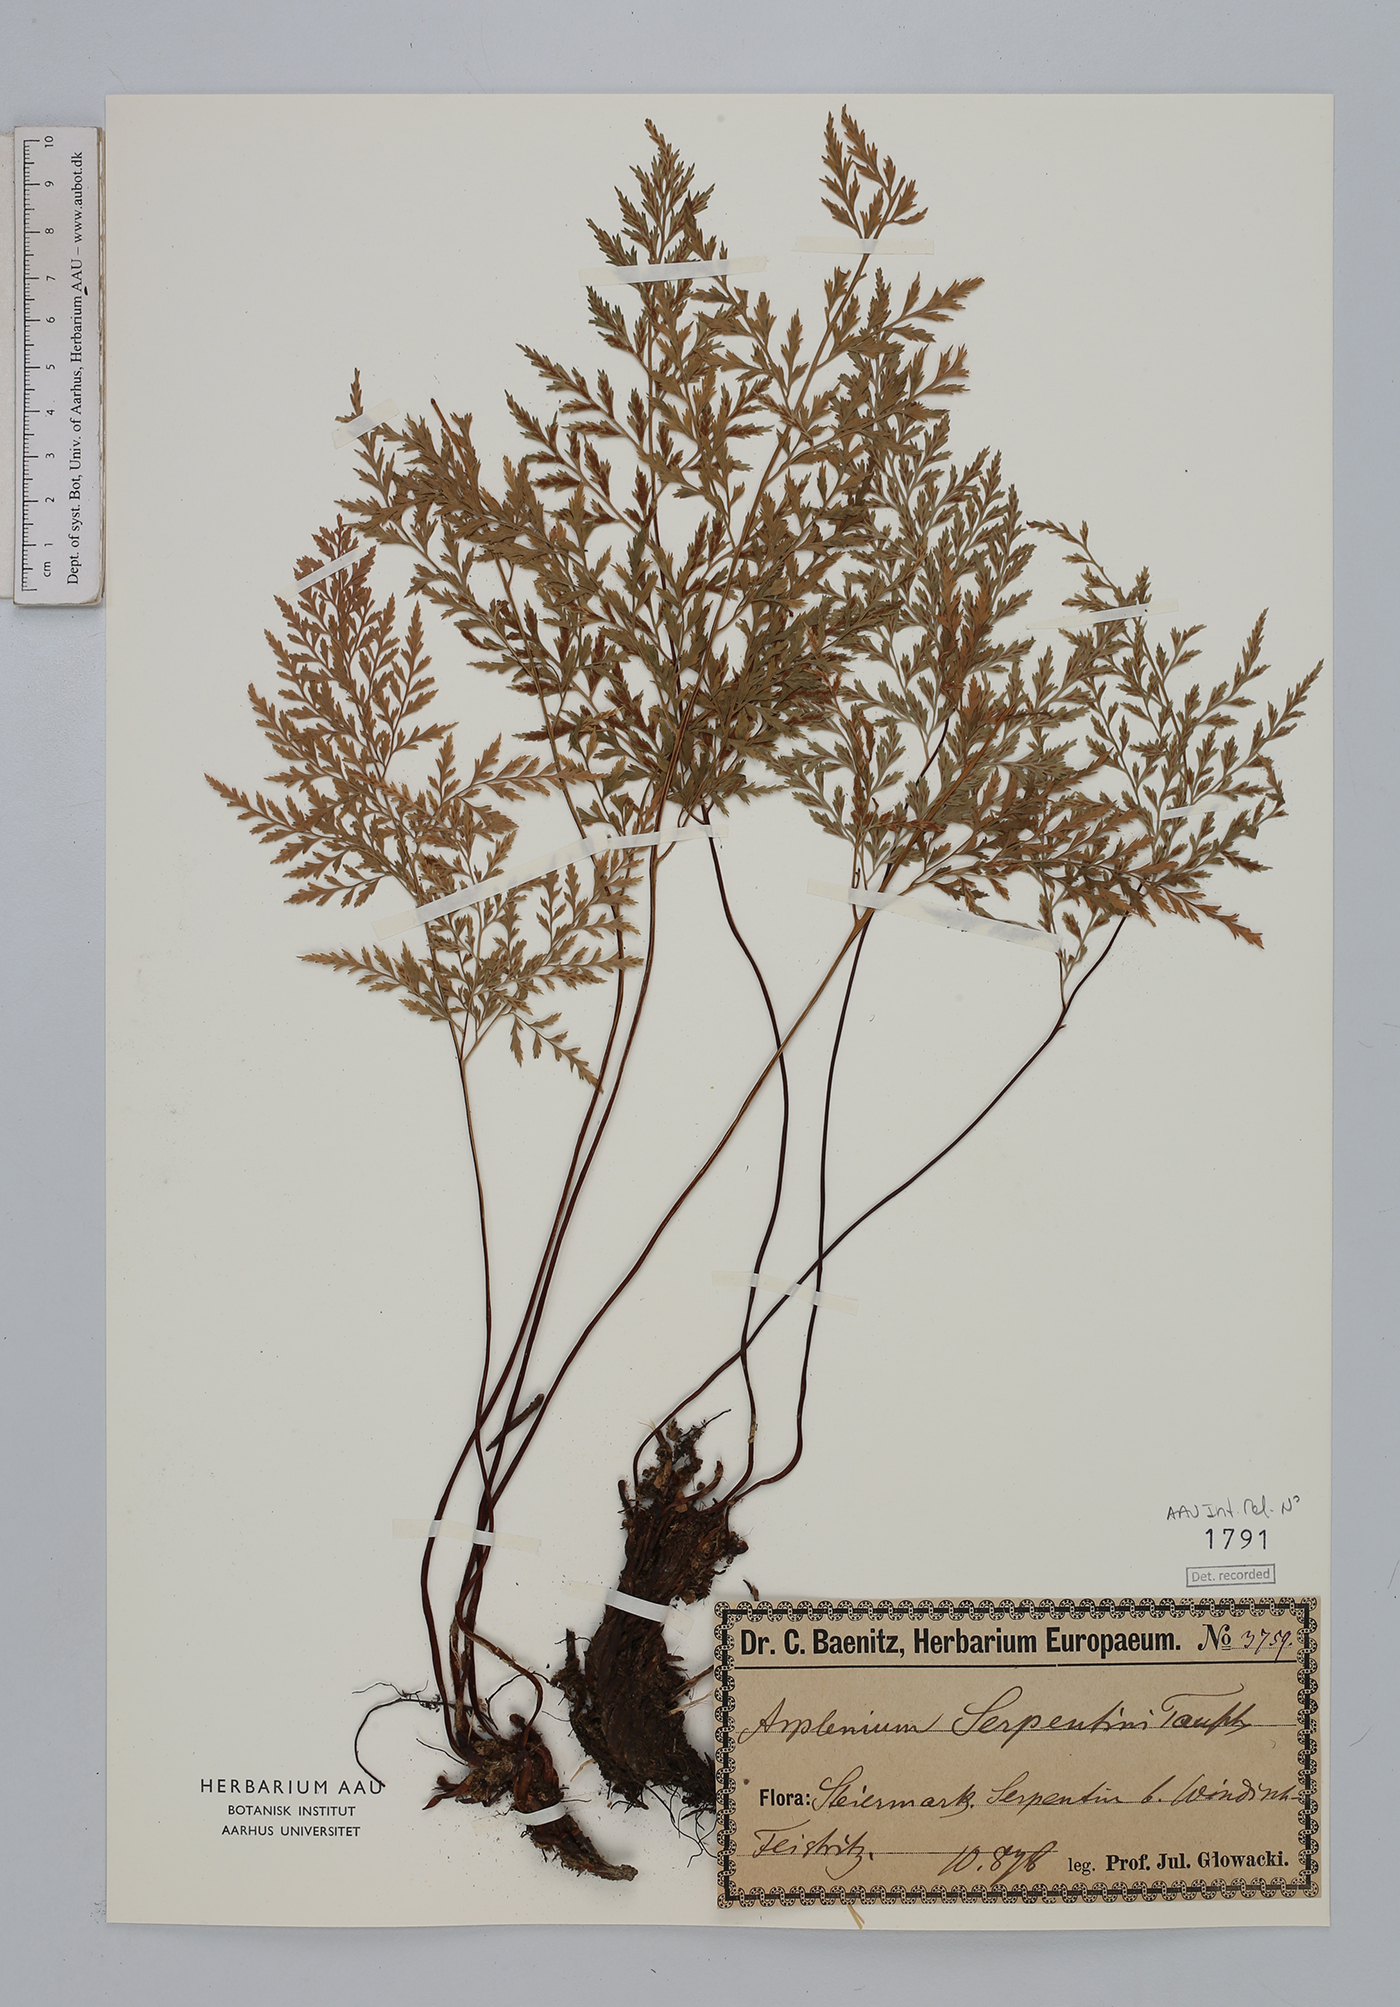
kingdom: Plantae
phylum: Tracheophyta
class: Polypodiopsida
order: Polypodiales
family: Aspleniaceae
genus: Asplenium
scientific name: Asplenium cuneifolium
